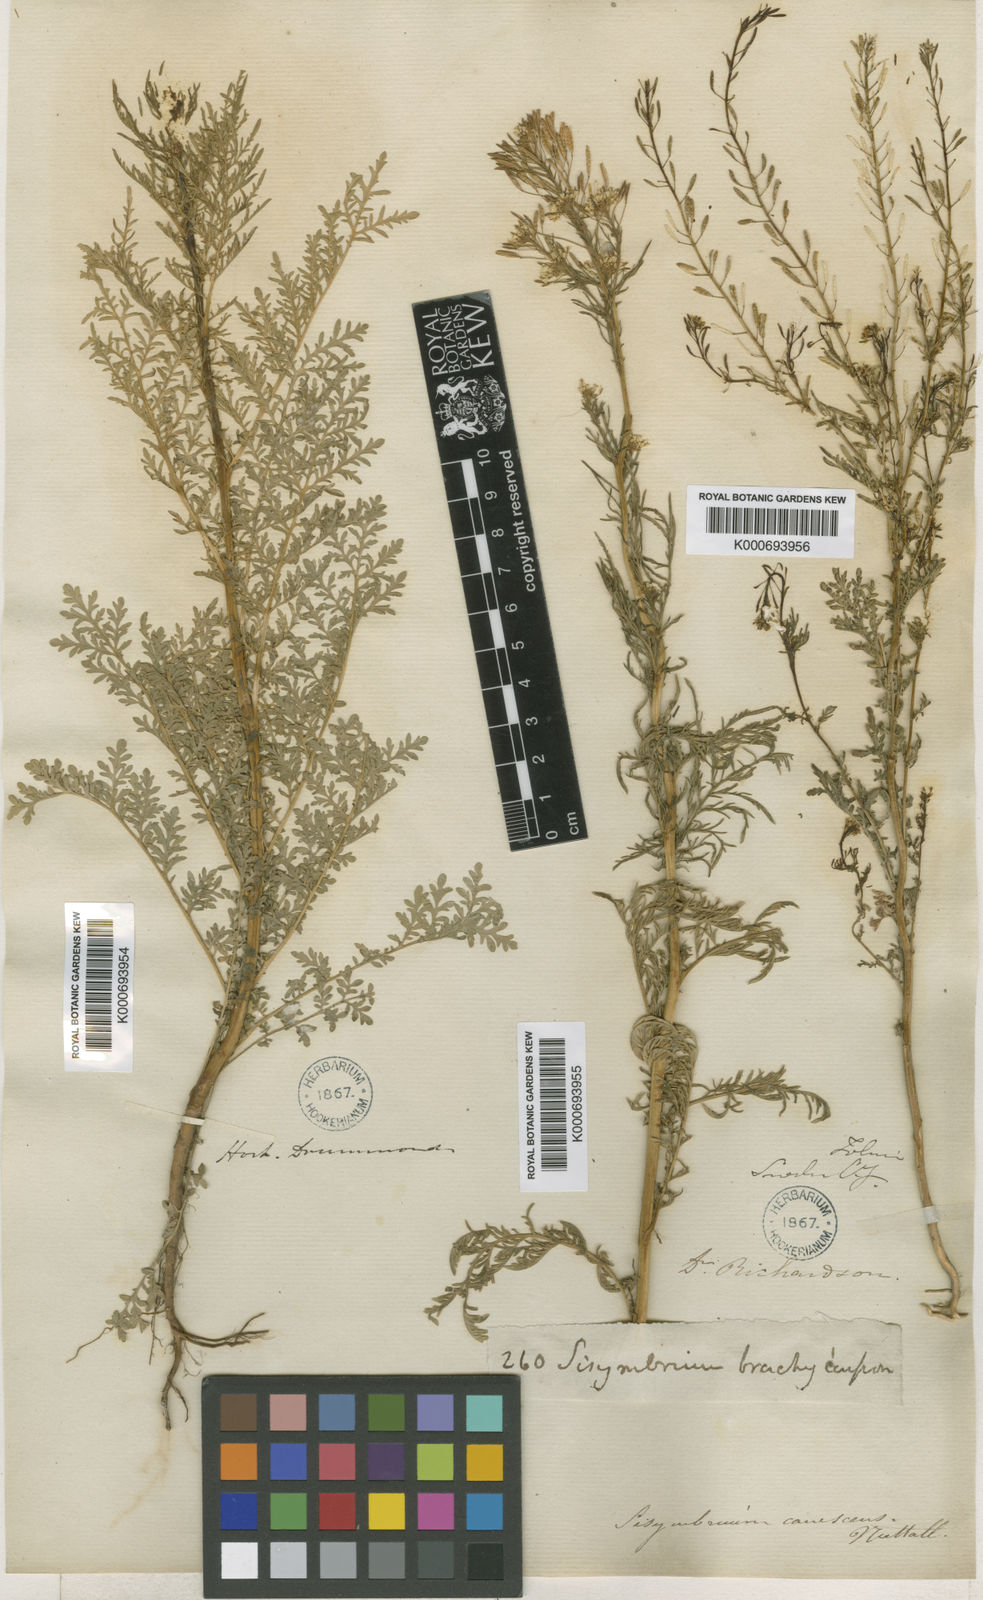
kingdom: Plantae
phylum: Tracheophyta
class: Magnoliopsida
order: Brassicales
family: Brassicaceae
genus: Descurainia
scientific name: Descurainia pinnata
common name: Western tansy mustard
